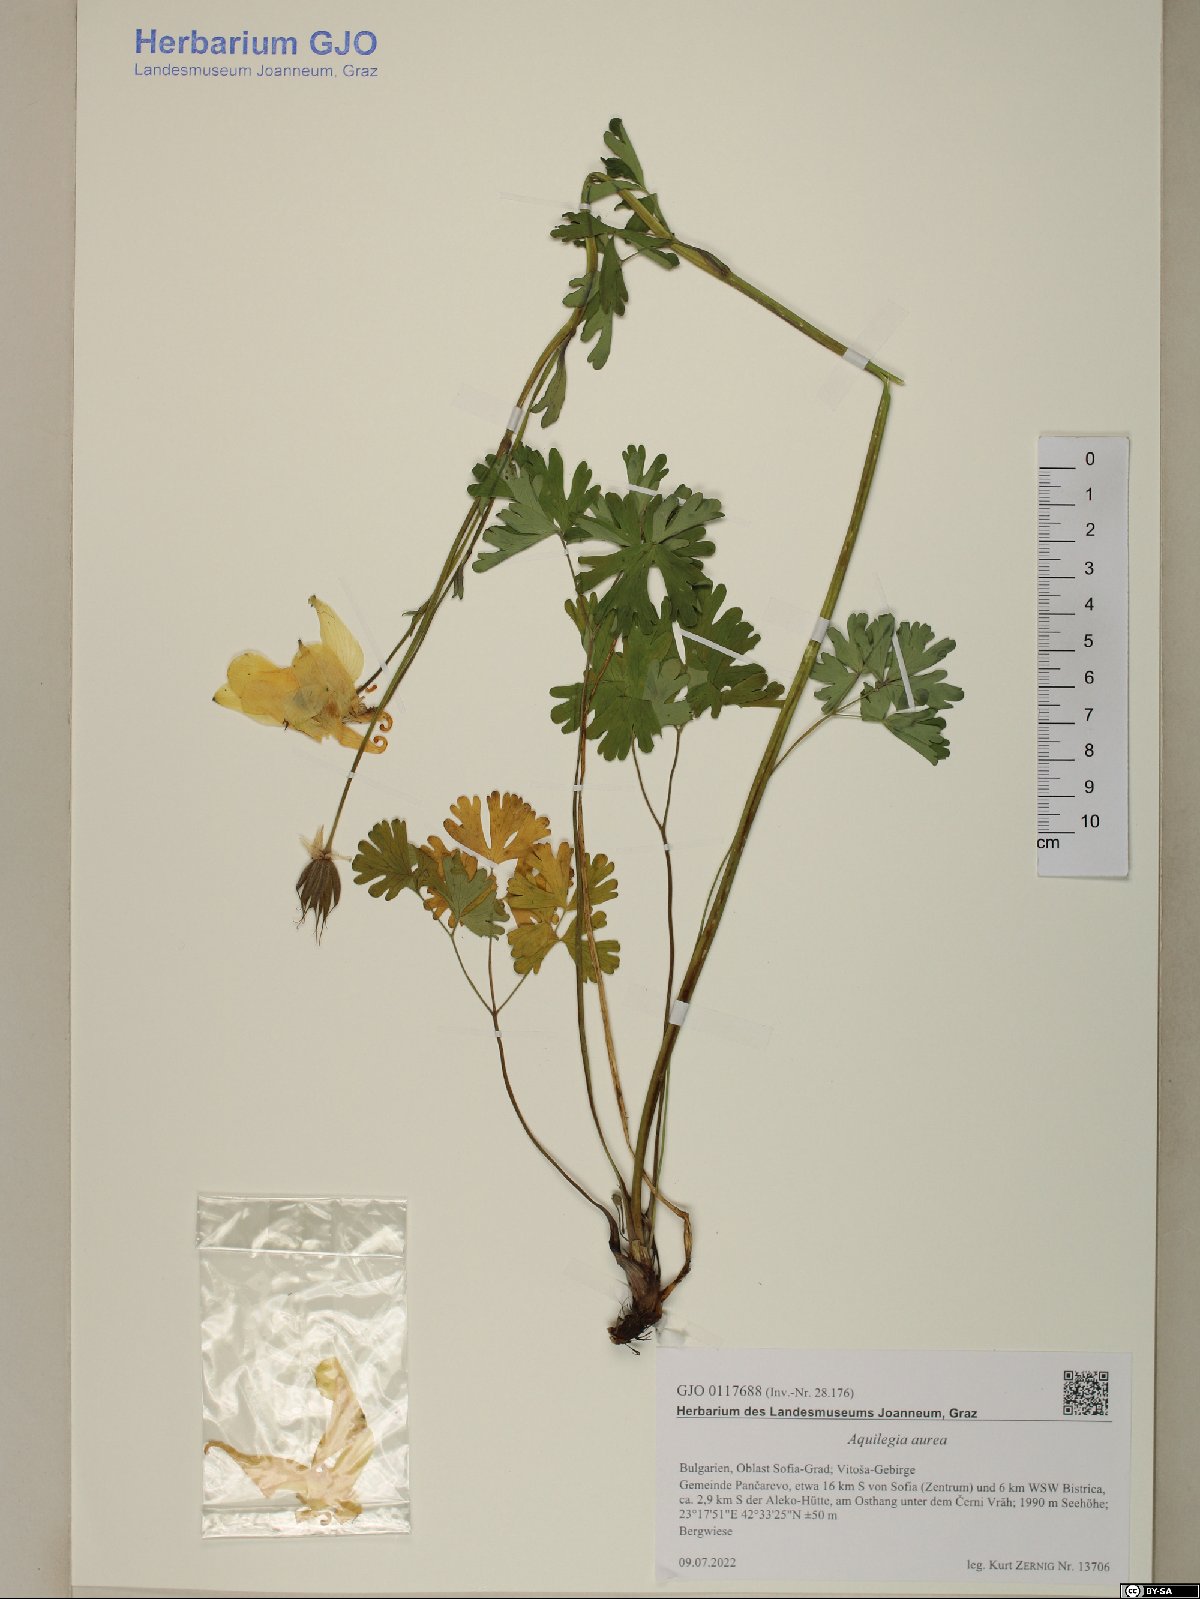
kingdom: Plantae
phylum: Tracheophyta
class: Magnoliopsida
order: Ranunculales
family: Ranunculaceae
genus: Aquilegia
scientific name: Aquilegia aurea
